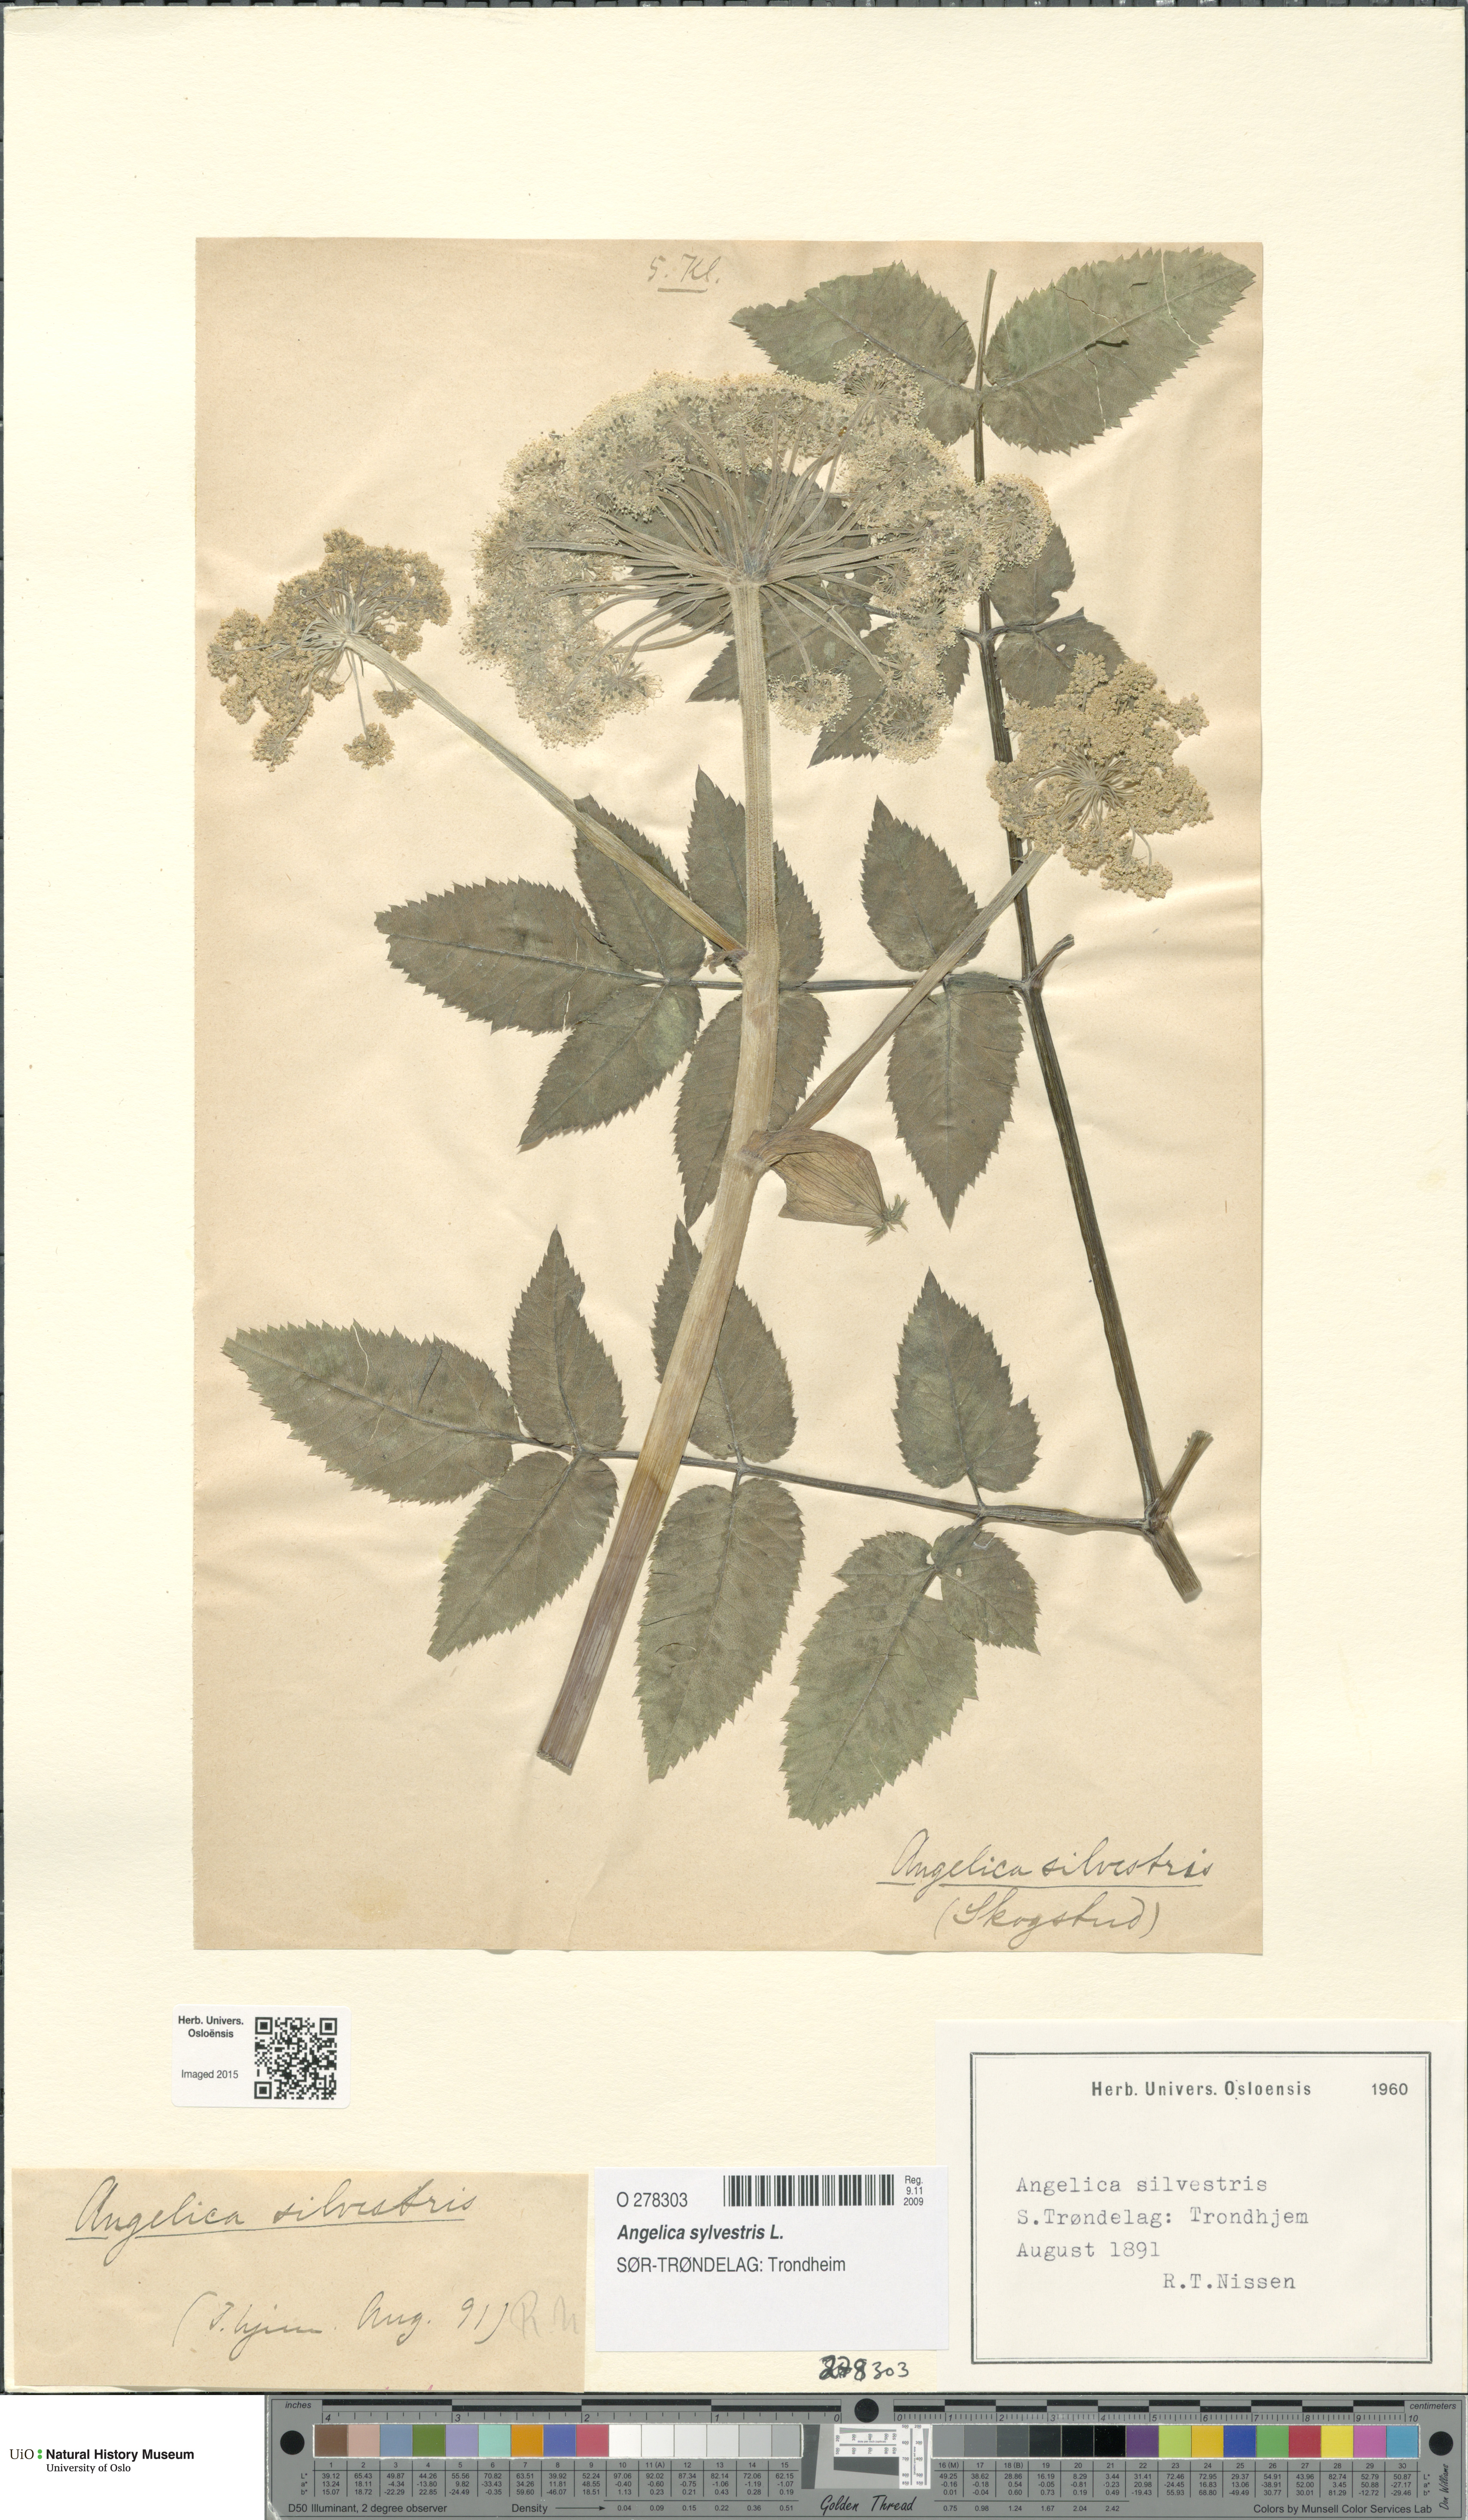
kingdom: Plantae
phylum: Tracheophyta
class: Magnoliopsida
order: Apiales
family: Apiaceae
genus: Angelica
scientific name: Angelica sylvestris
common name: Wild angelica
